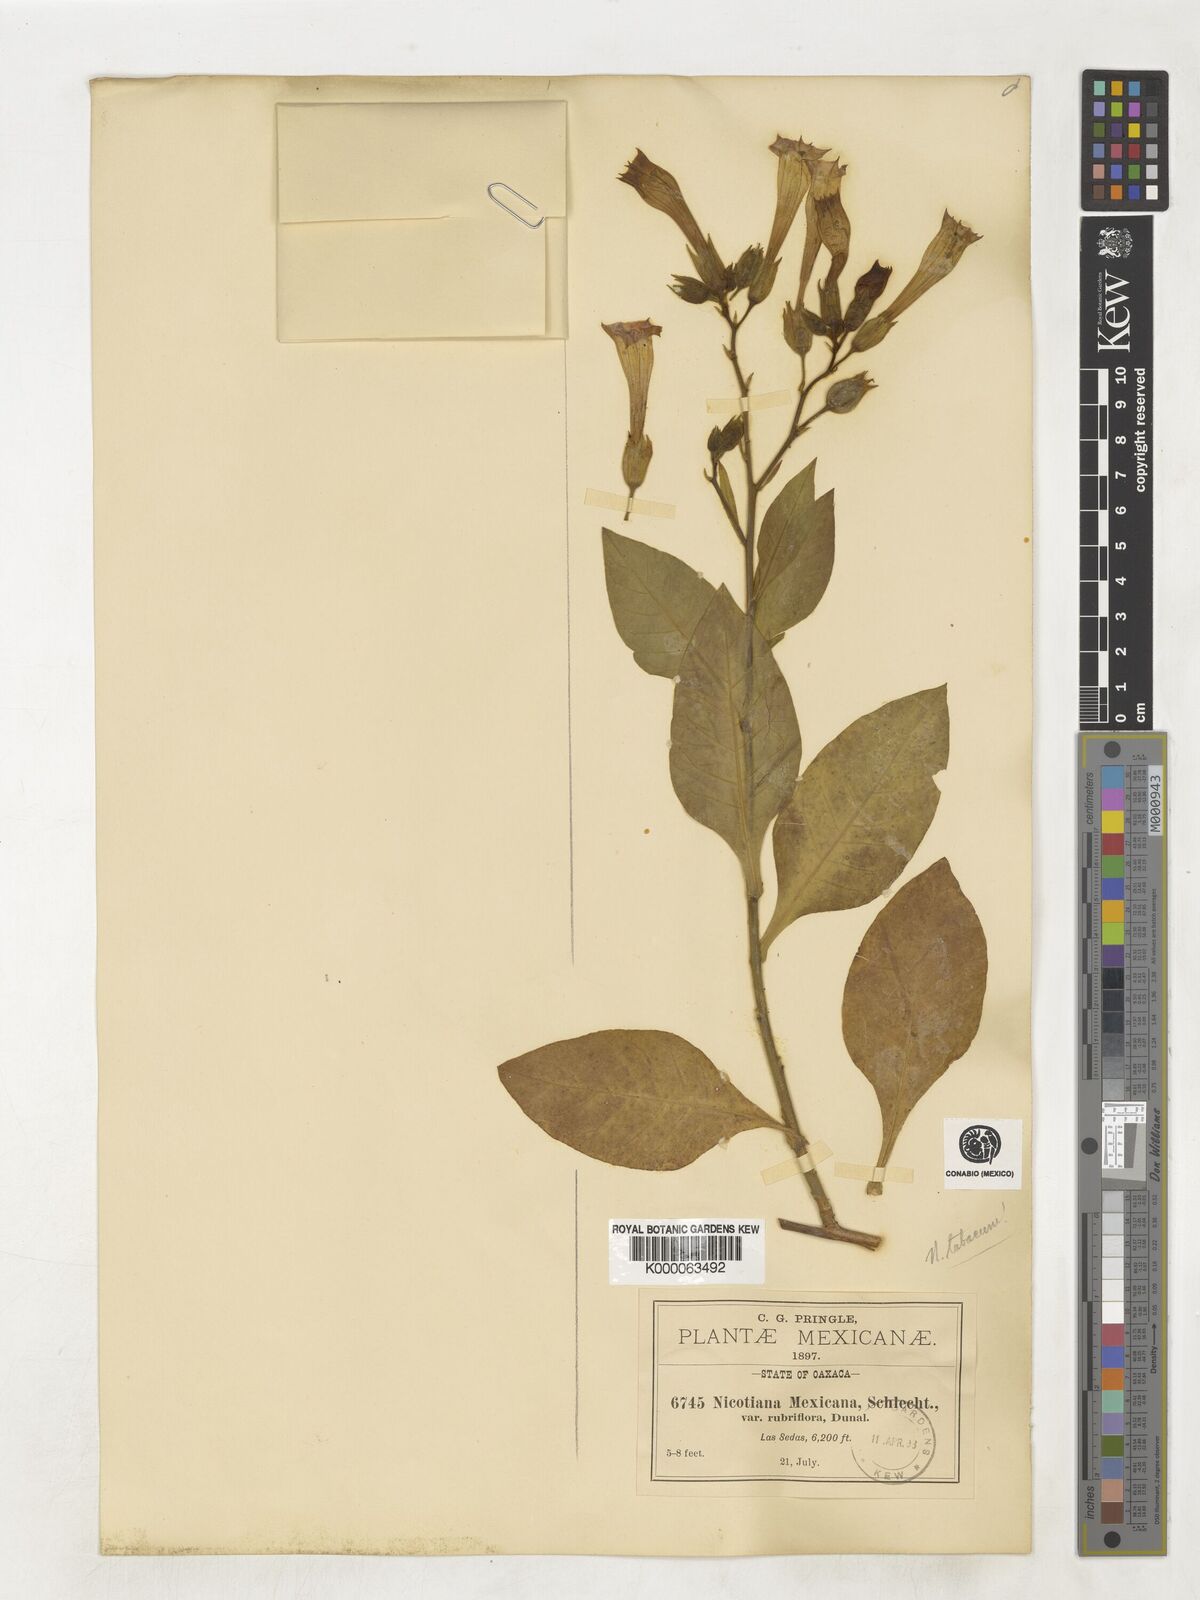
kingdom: Plantae
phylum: Tracheophyta
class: Magnoliopsida
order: Solanales
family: Solanaceae
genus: Nicotiana
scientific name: Nicotiana tabacum
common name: Tobacco
